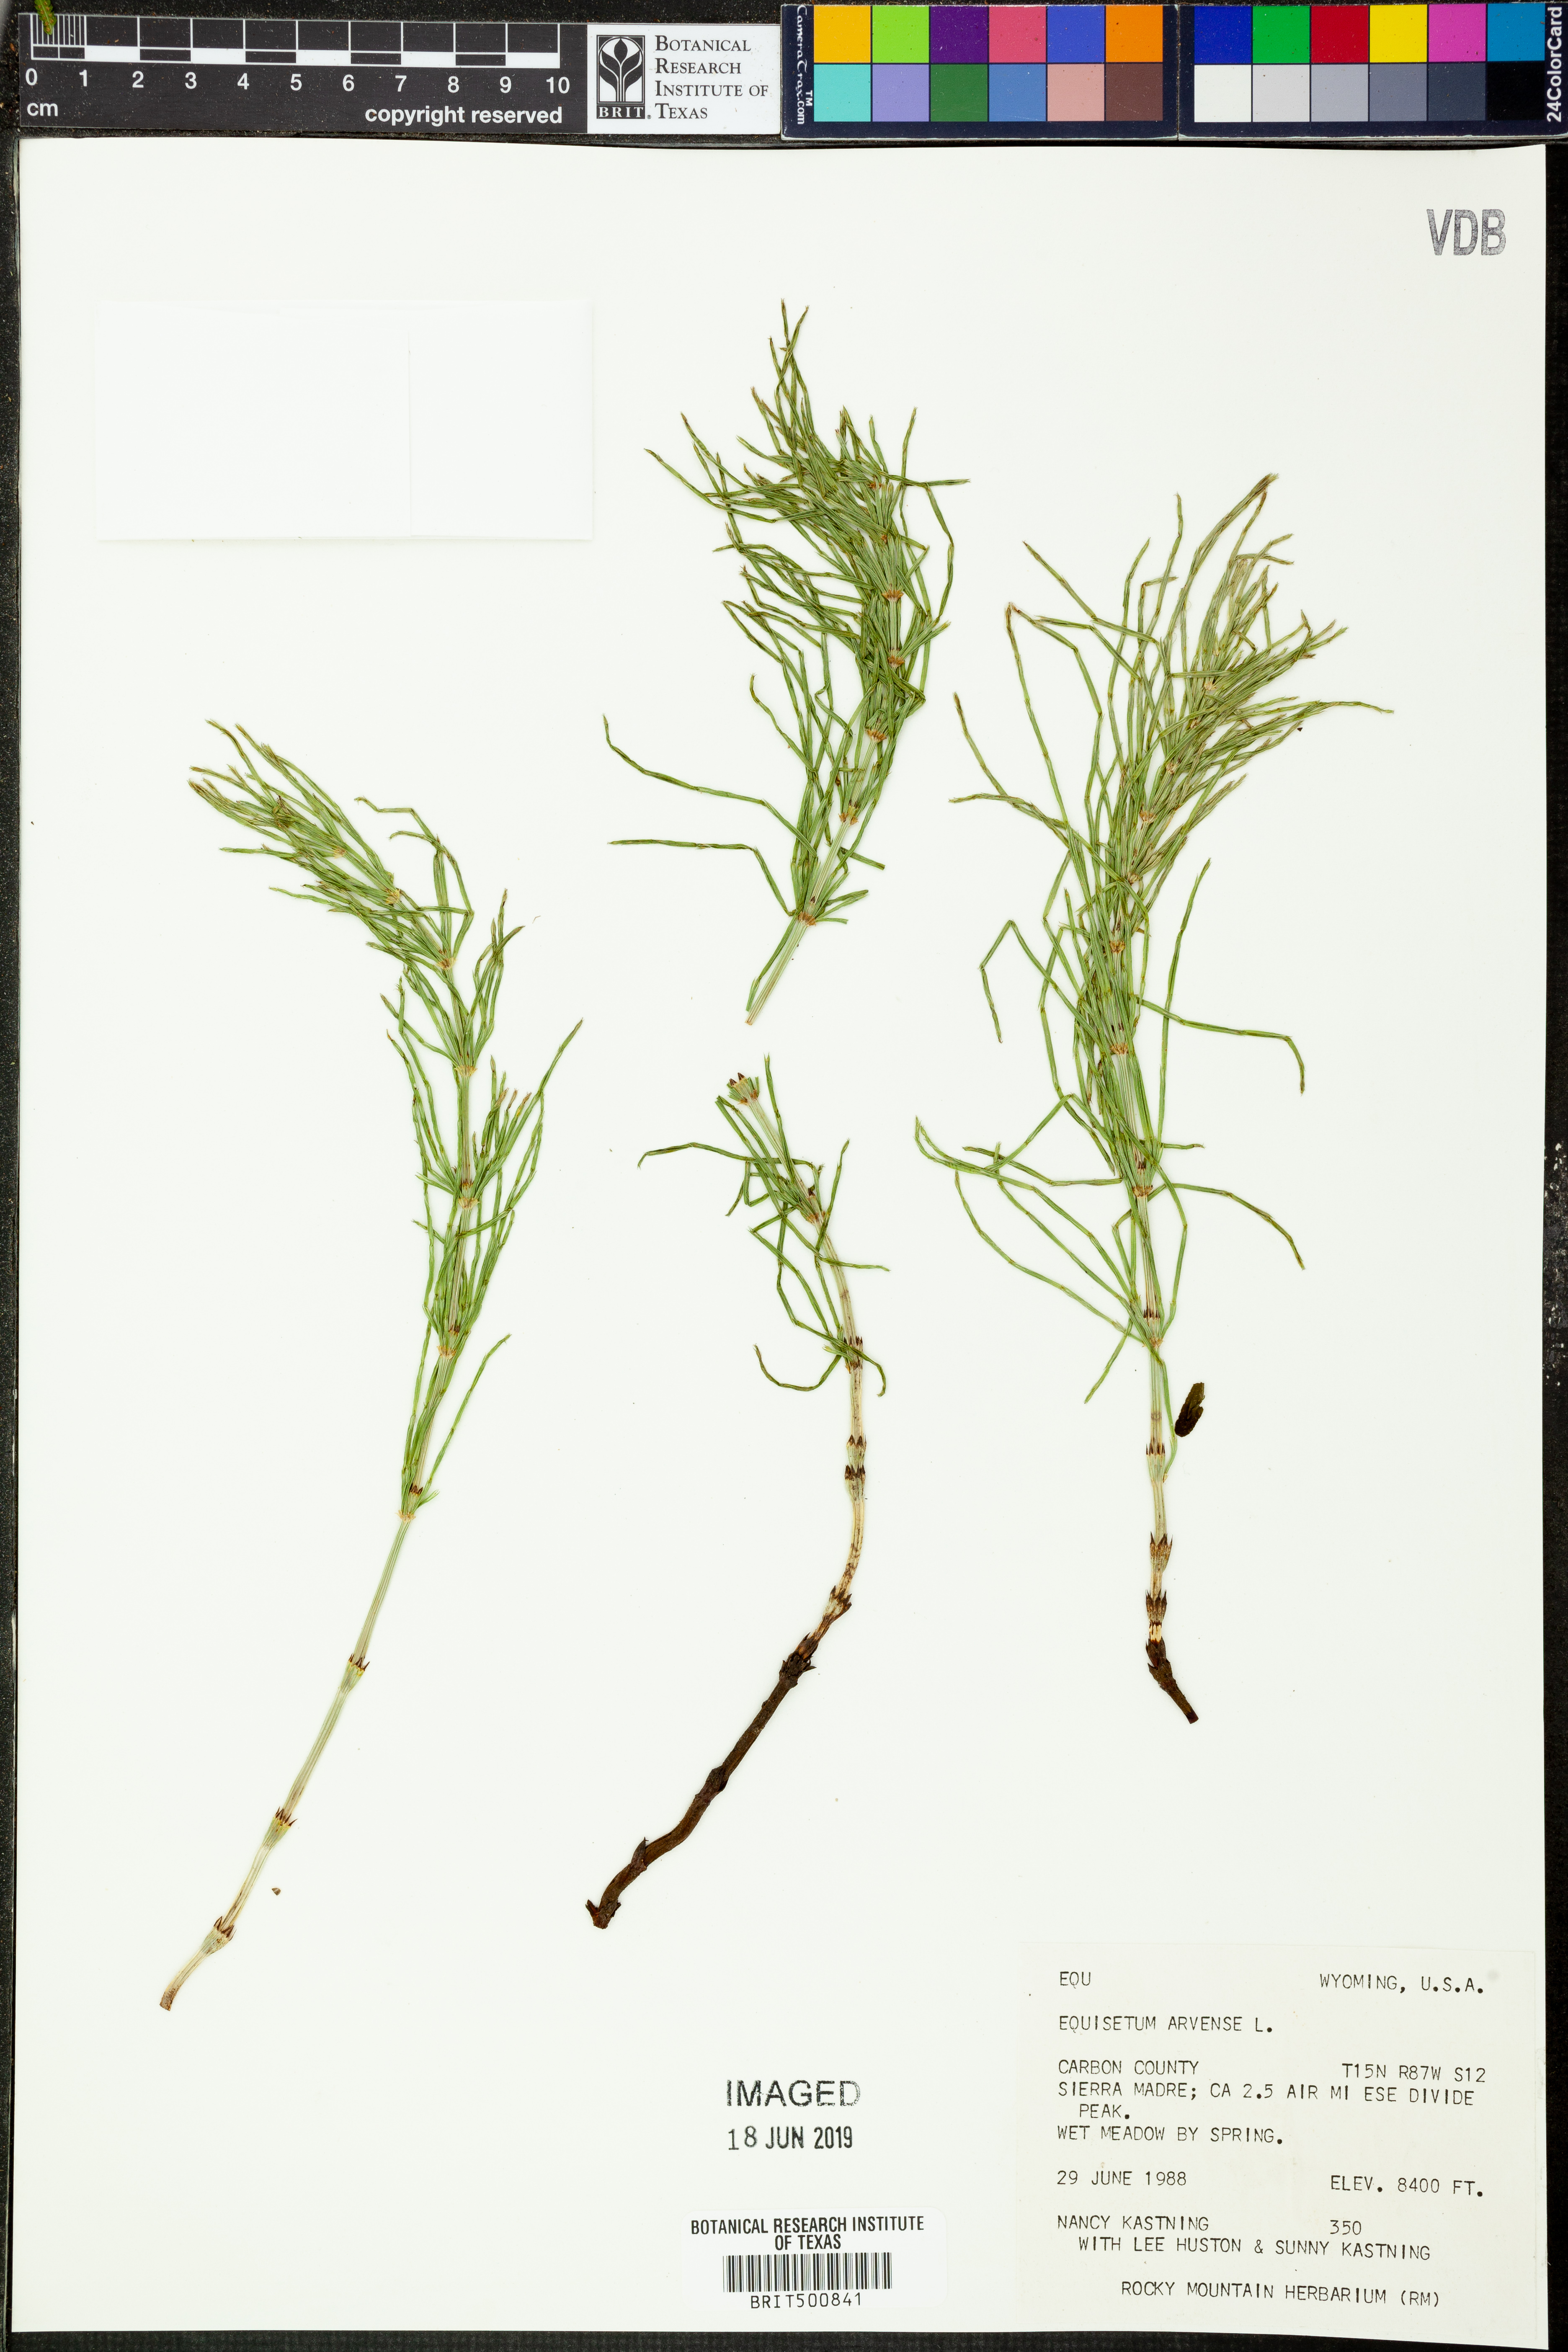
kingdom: Plantae
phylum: Tracheophyta
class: Polypodiopsida
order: Equisetales
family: Equisetaceae
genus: Equisetum
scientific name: Equisetum arvense
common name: Field horsetail
